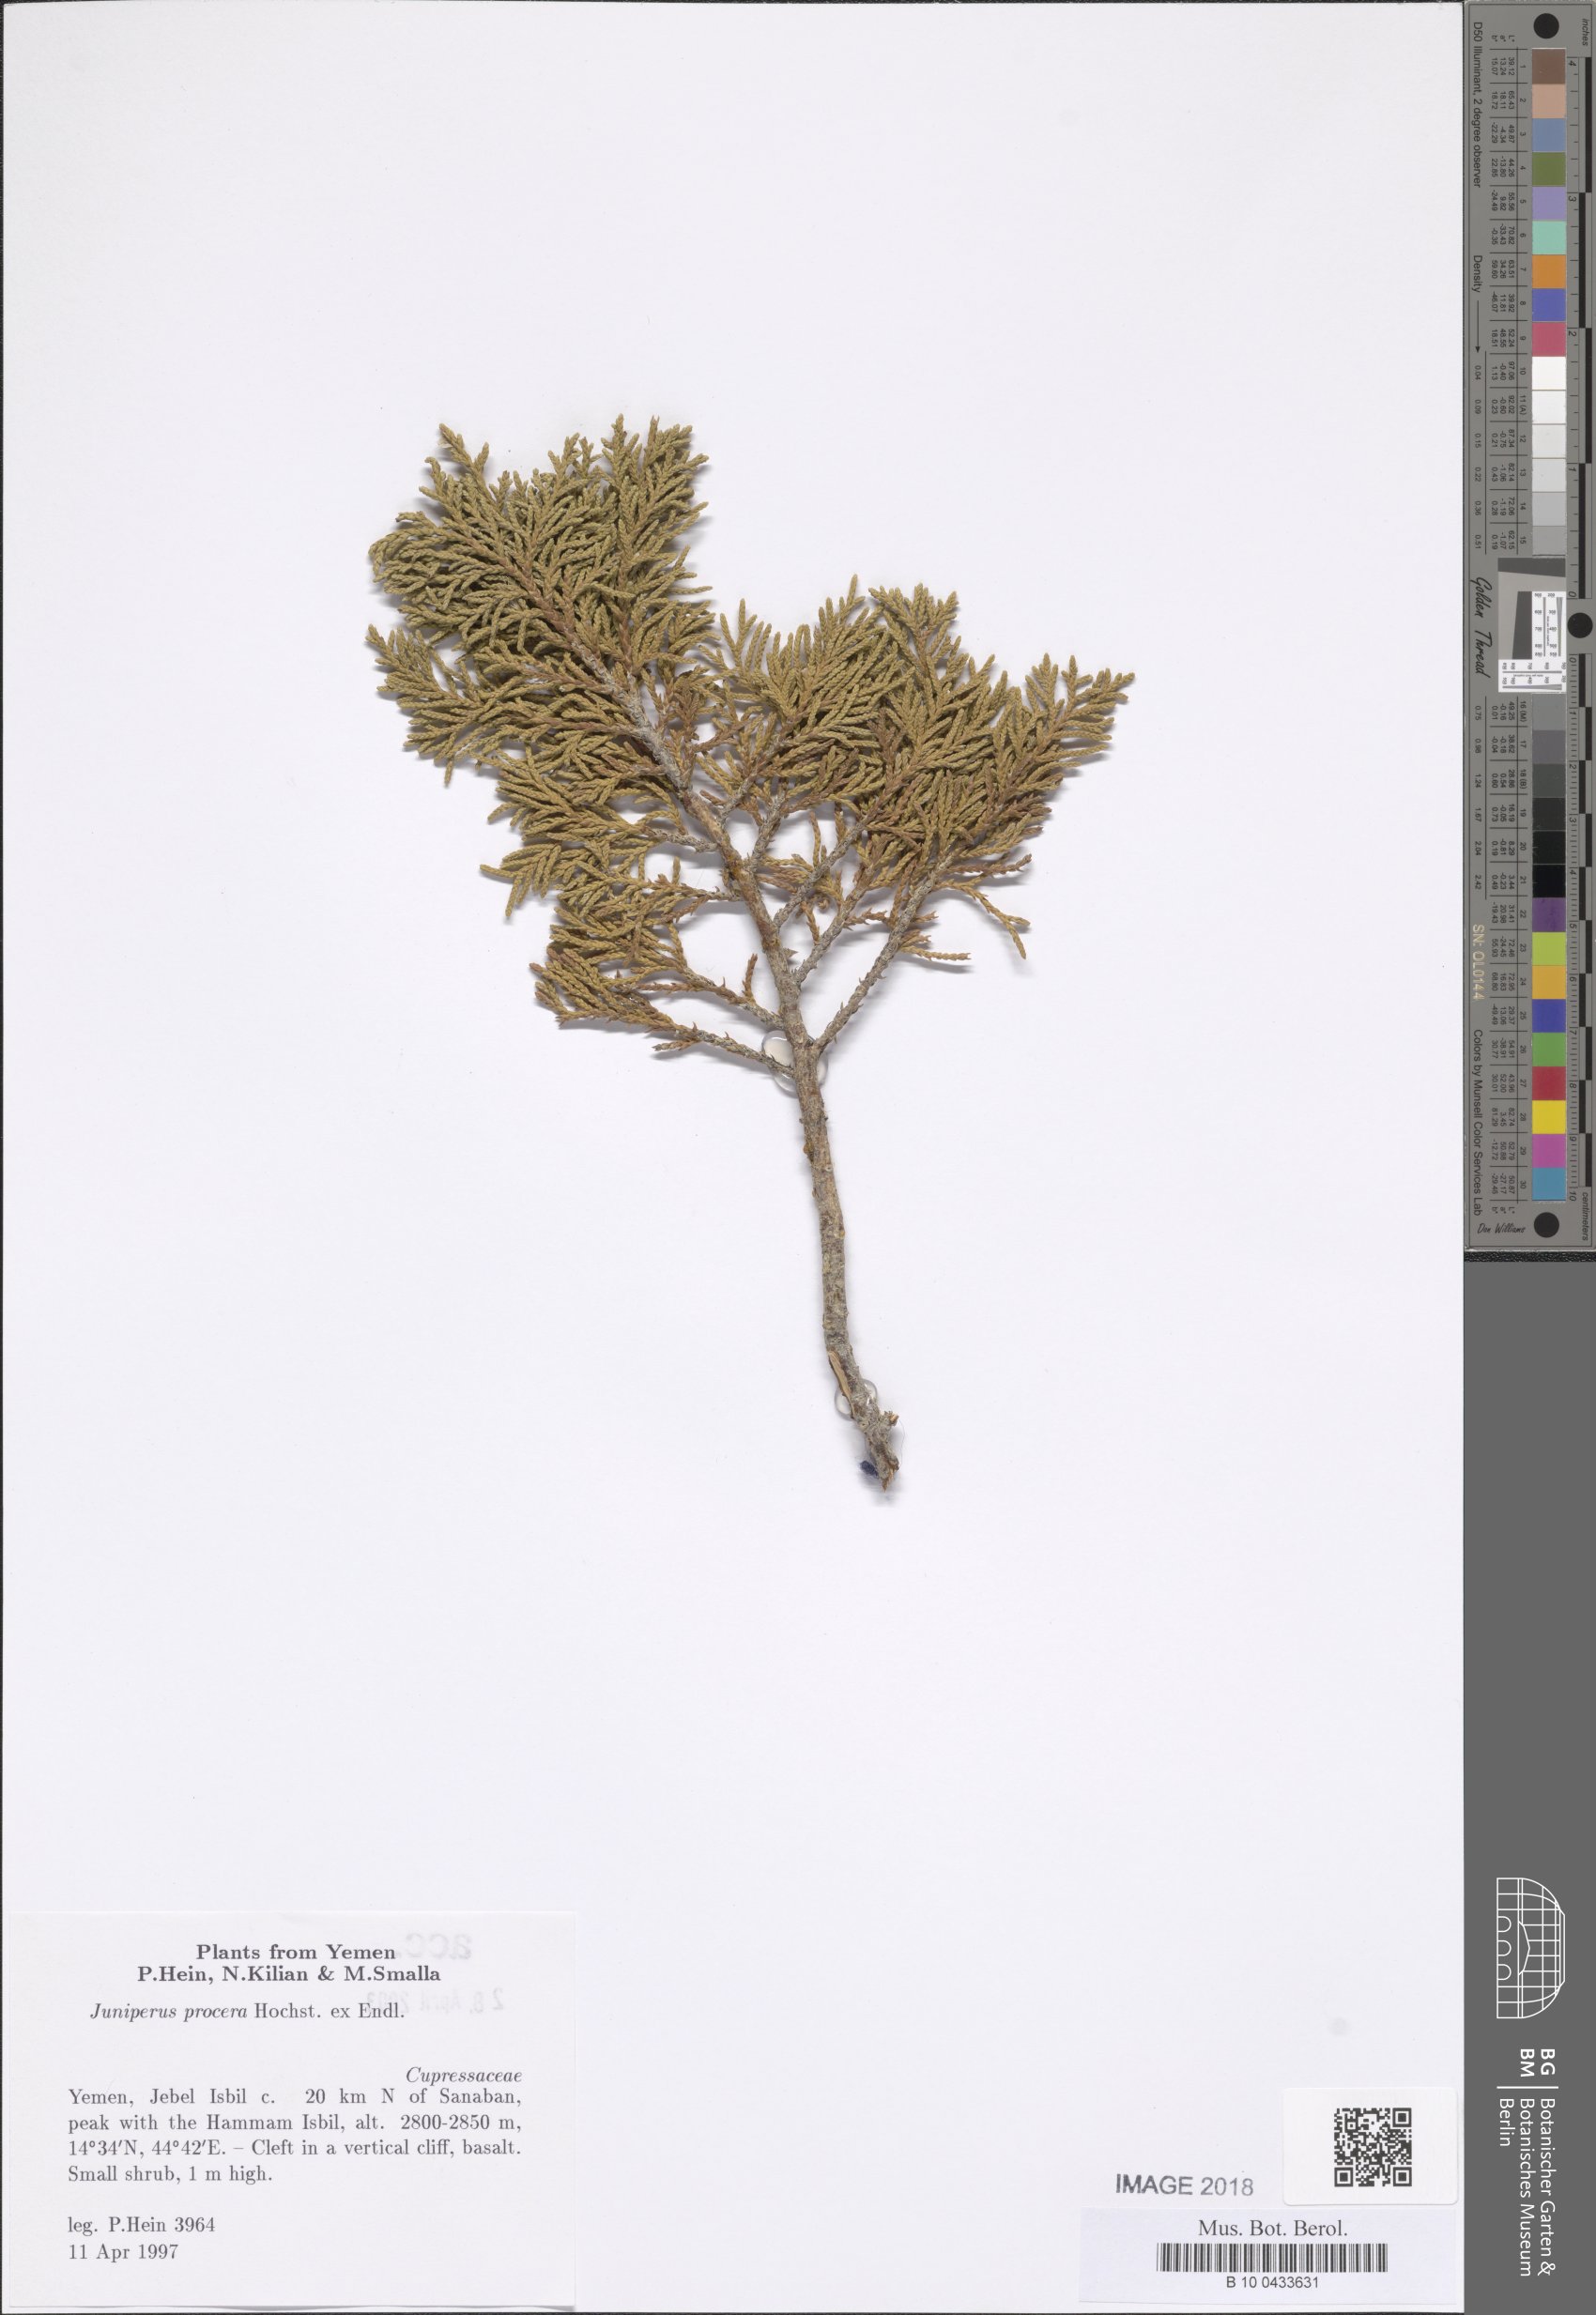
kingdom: Plantae
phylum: Tracheophyta
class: Pinopsida
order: Pinales
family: Cupressaceae
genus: Juniperus
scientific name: Juniperus procera
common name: African juniper
